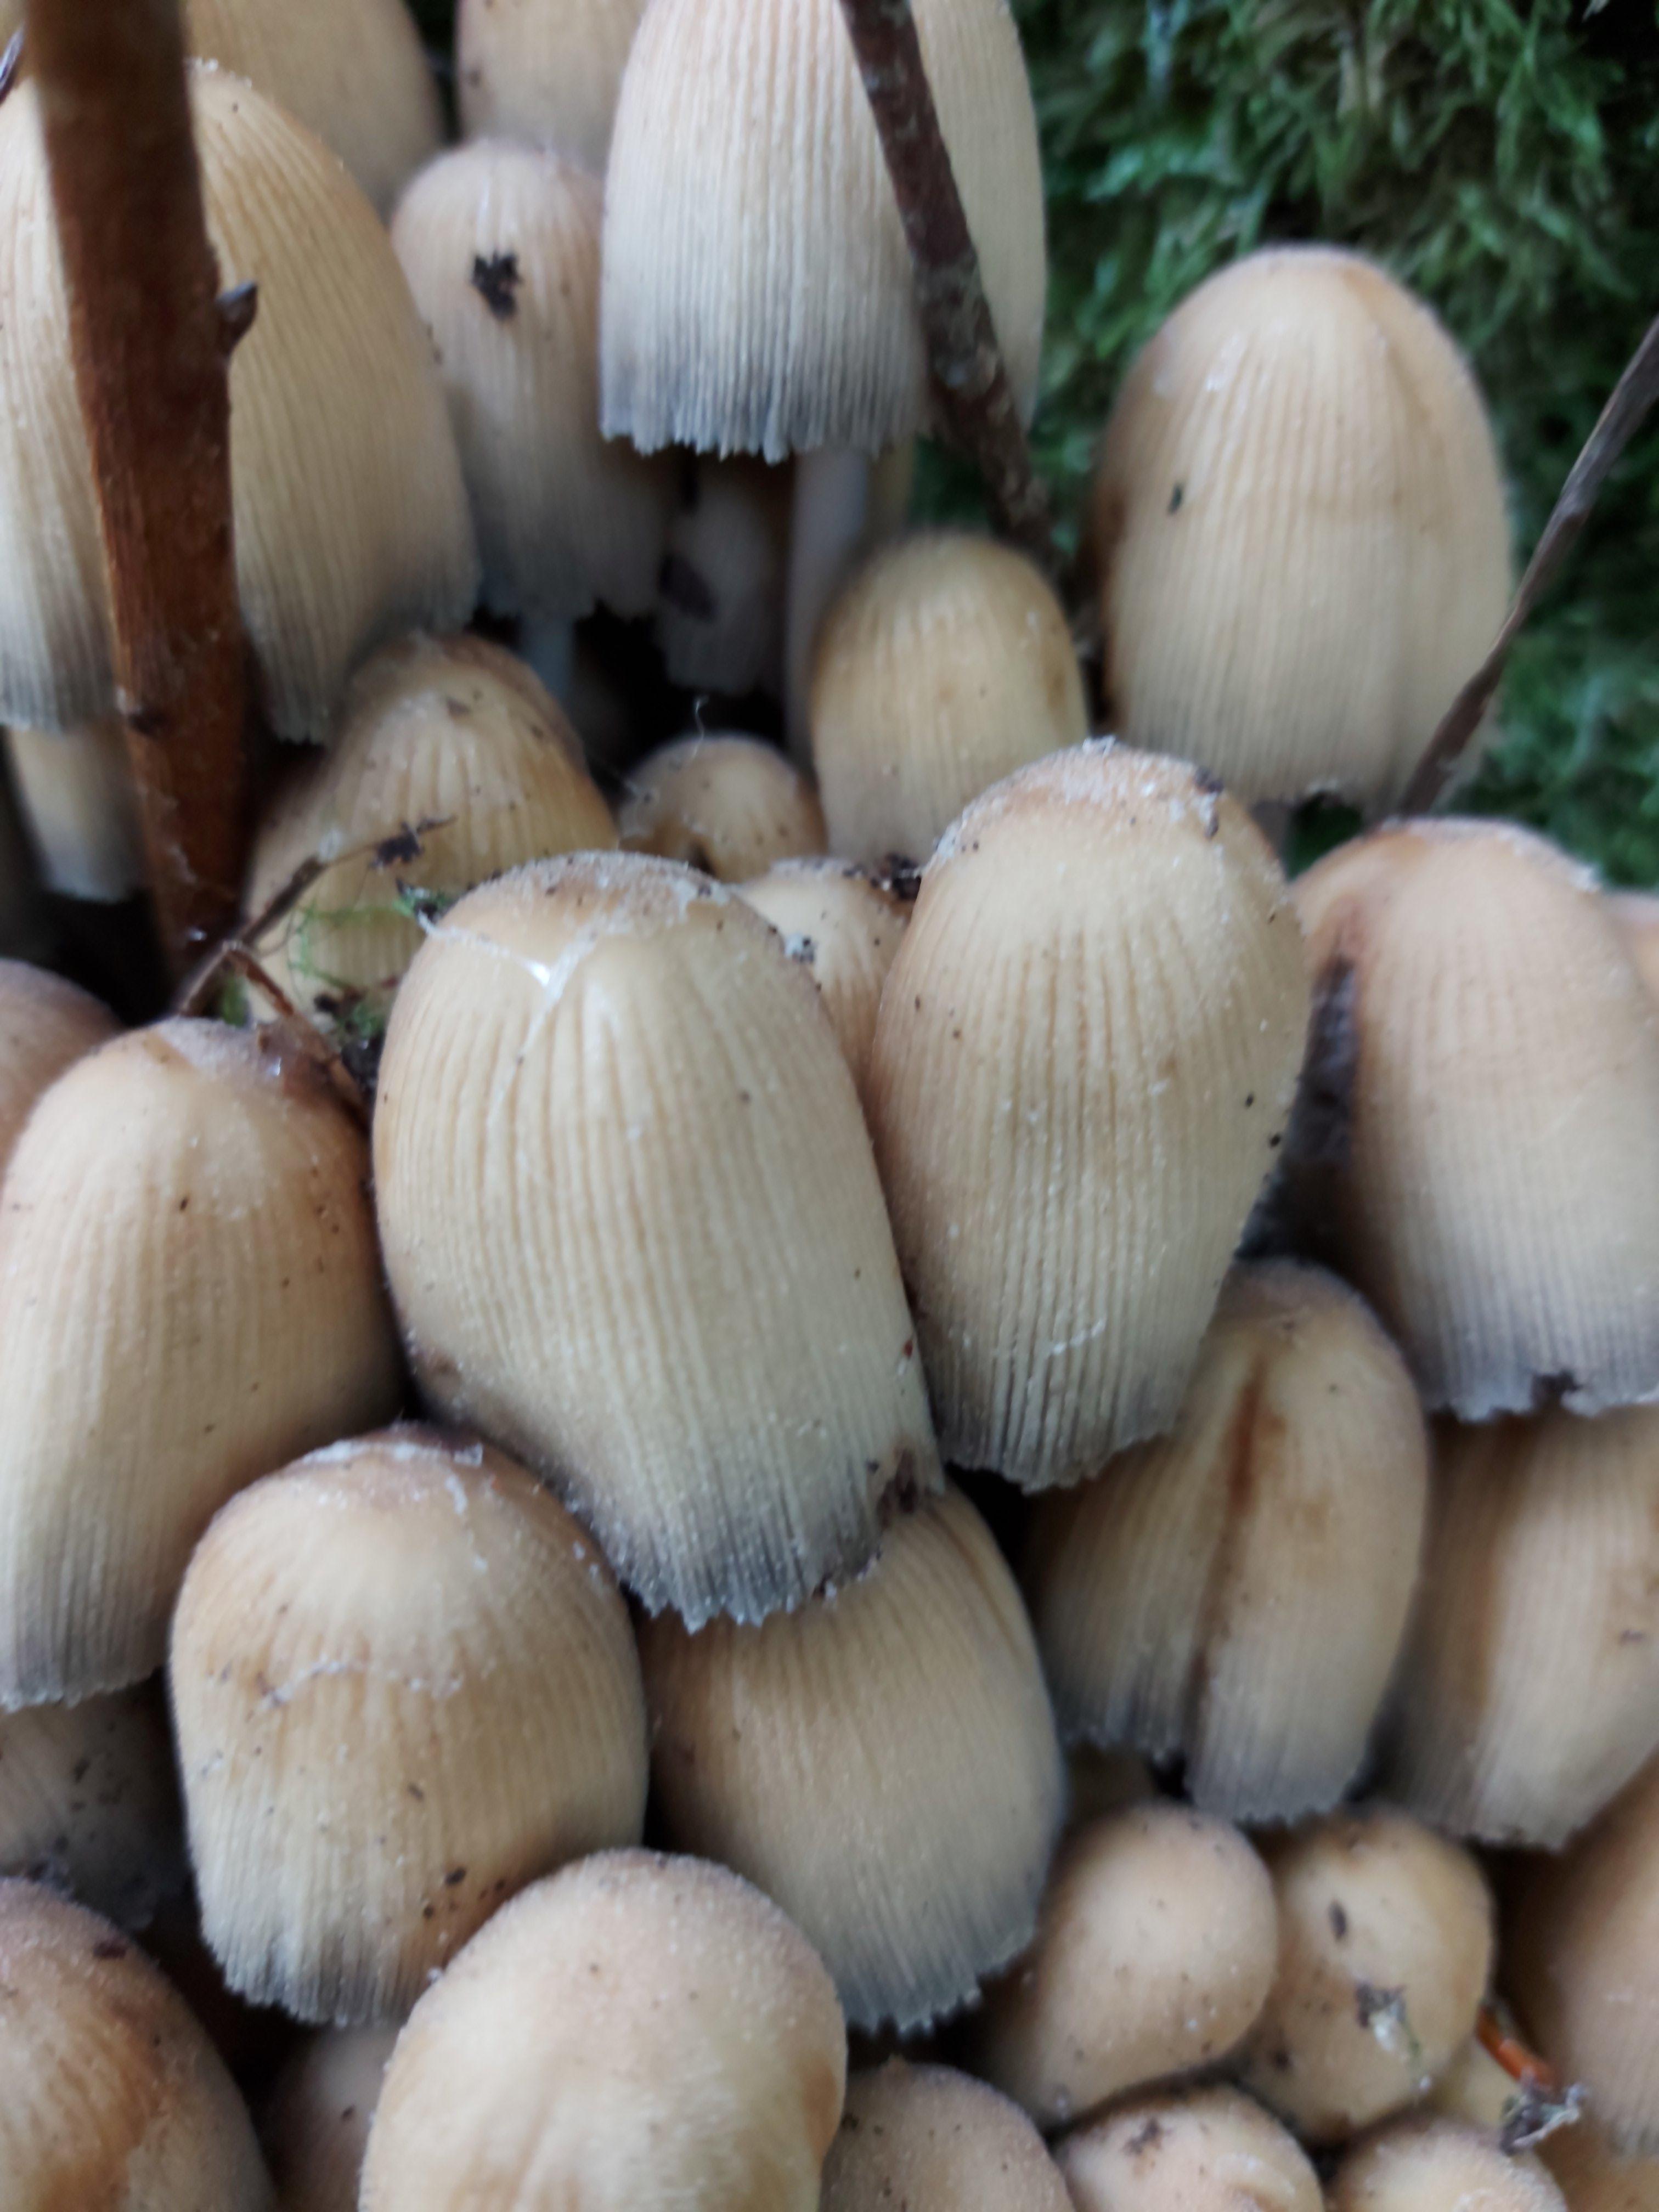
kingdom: Fungi
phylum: Basidiomycota
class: Agaricomycetes
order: Agaricales
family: Psathyrellaceae
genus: Coprinellus
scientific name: Coprinellus micaceus
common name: glimmer-blækhat
